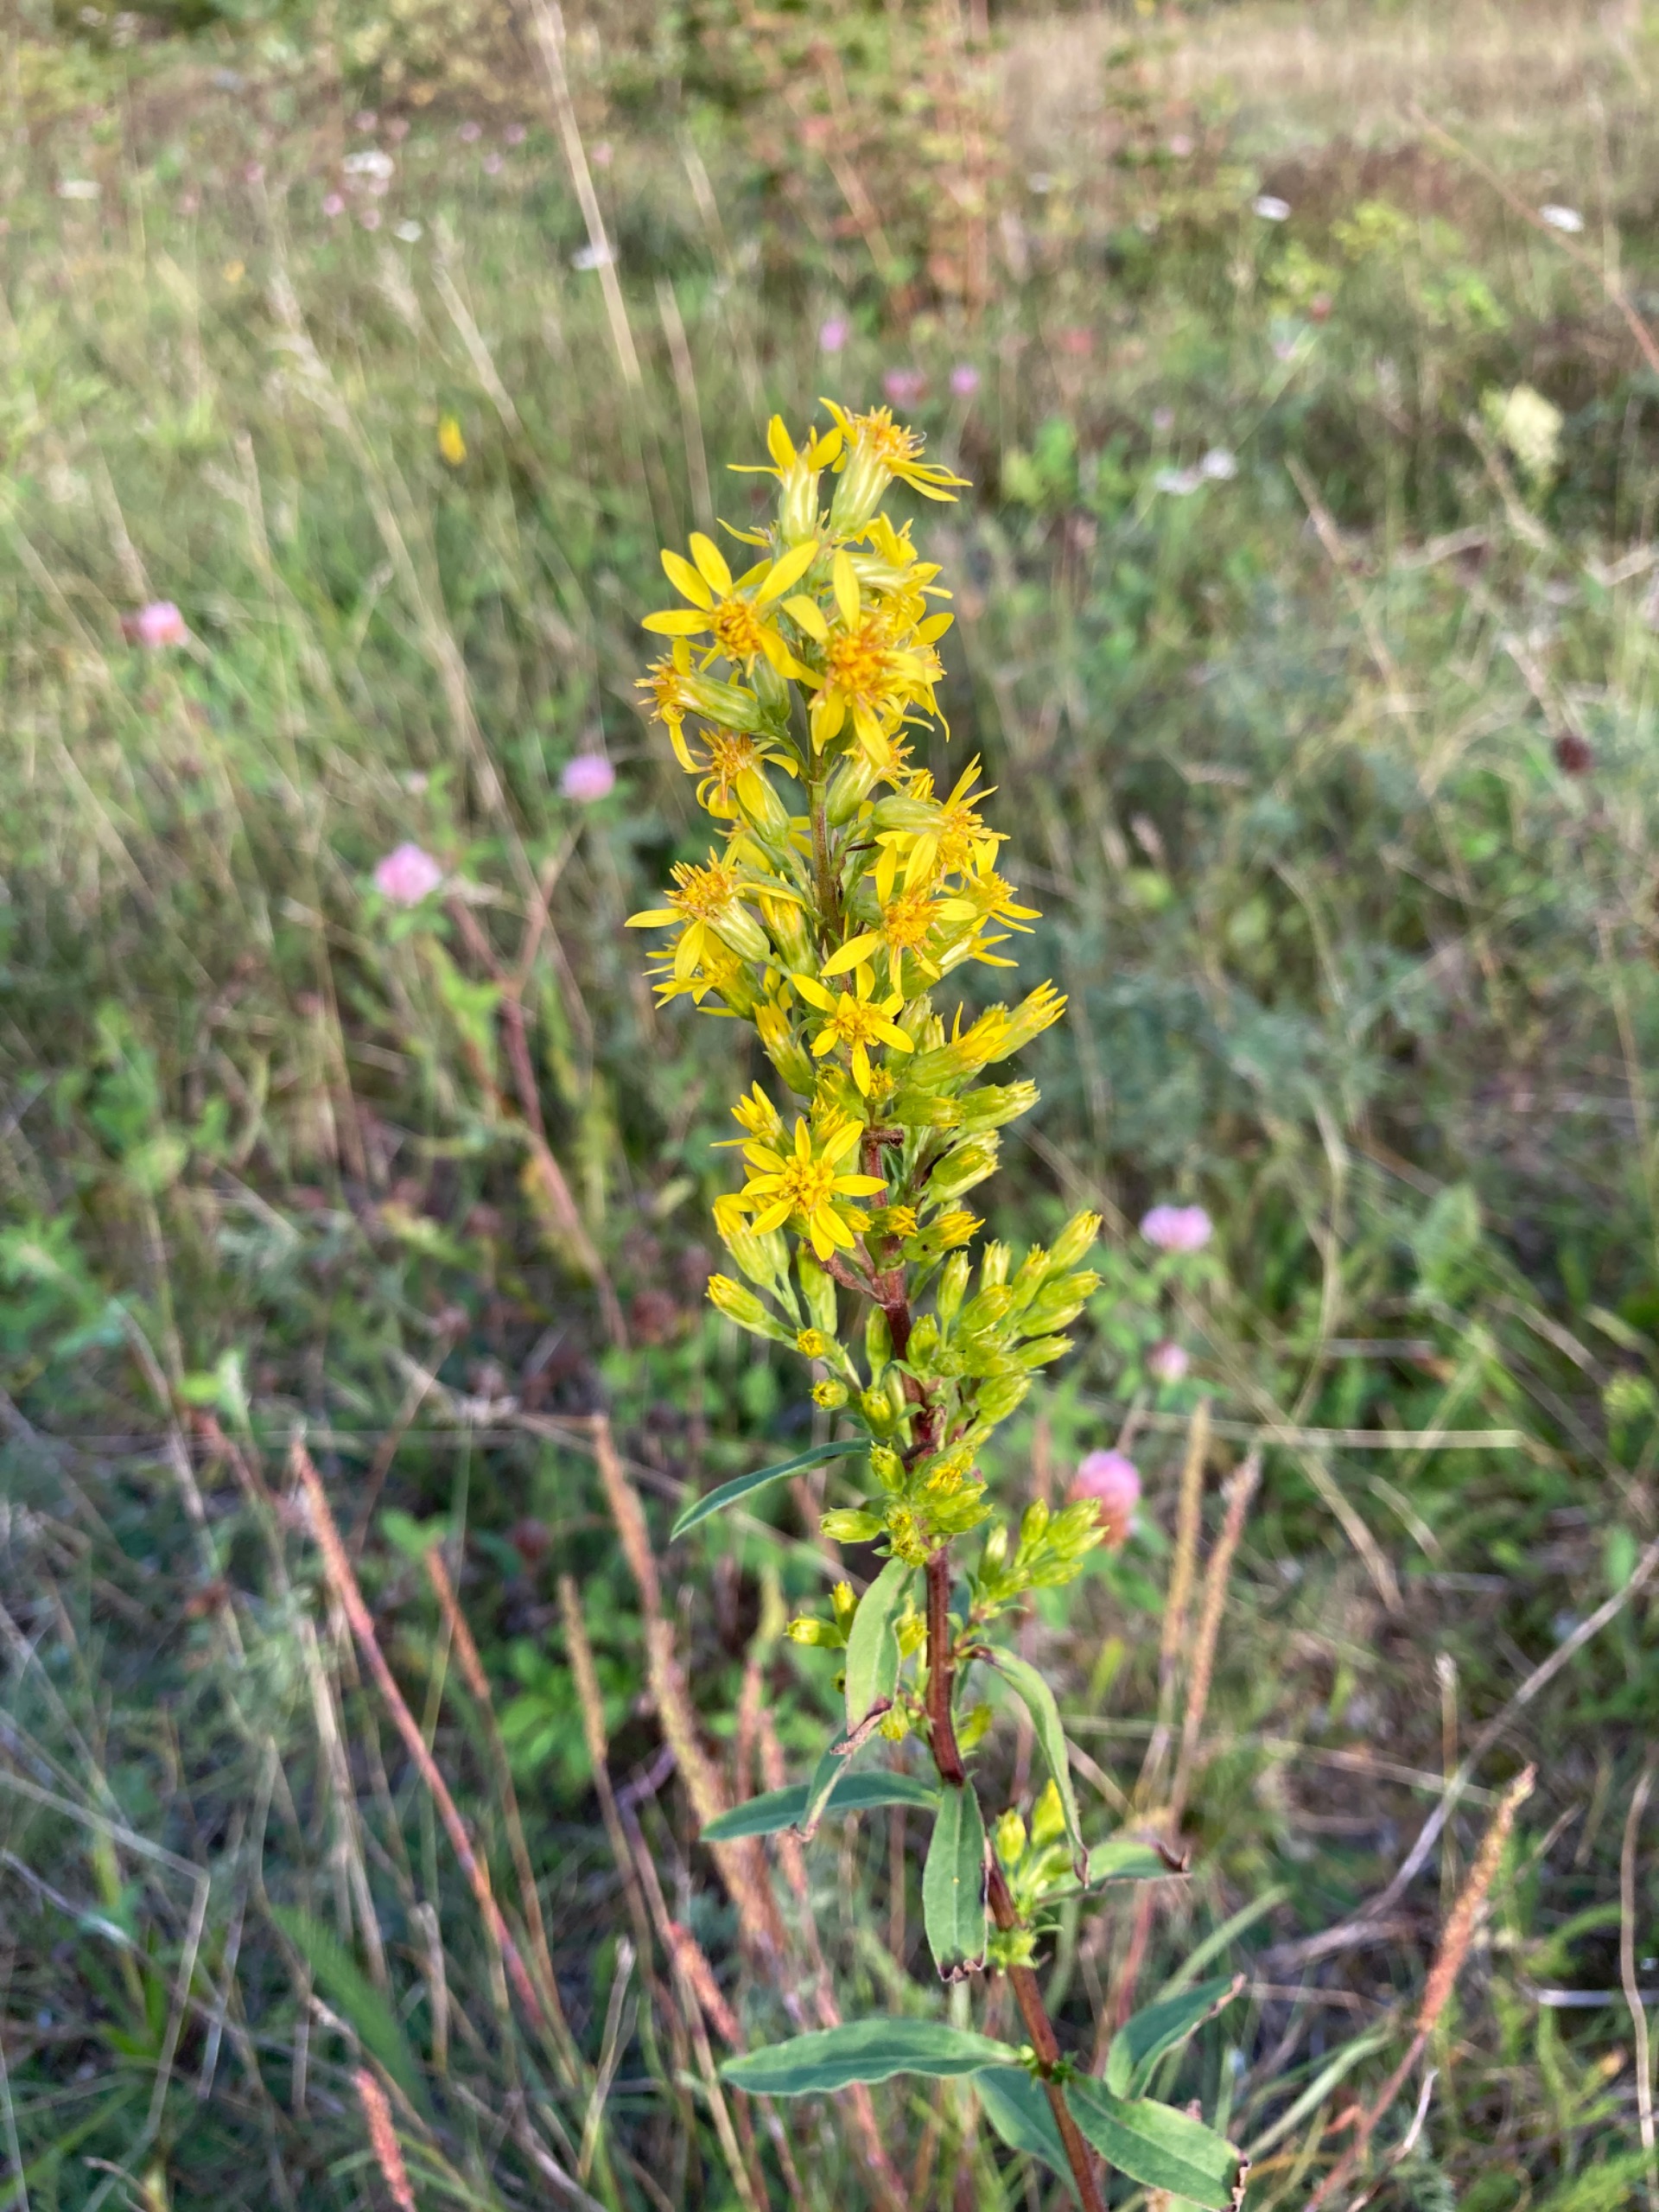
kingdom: Plantae
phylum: Tracheophyta
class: Magnoliopsida
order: Asterales
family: Asteraceae
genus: Solidago
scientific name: Solidago virgaurea
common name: Almindelig gyldenris
